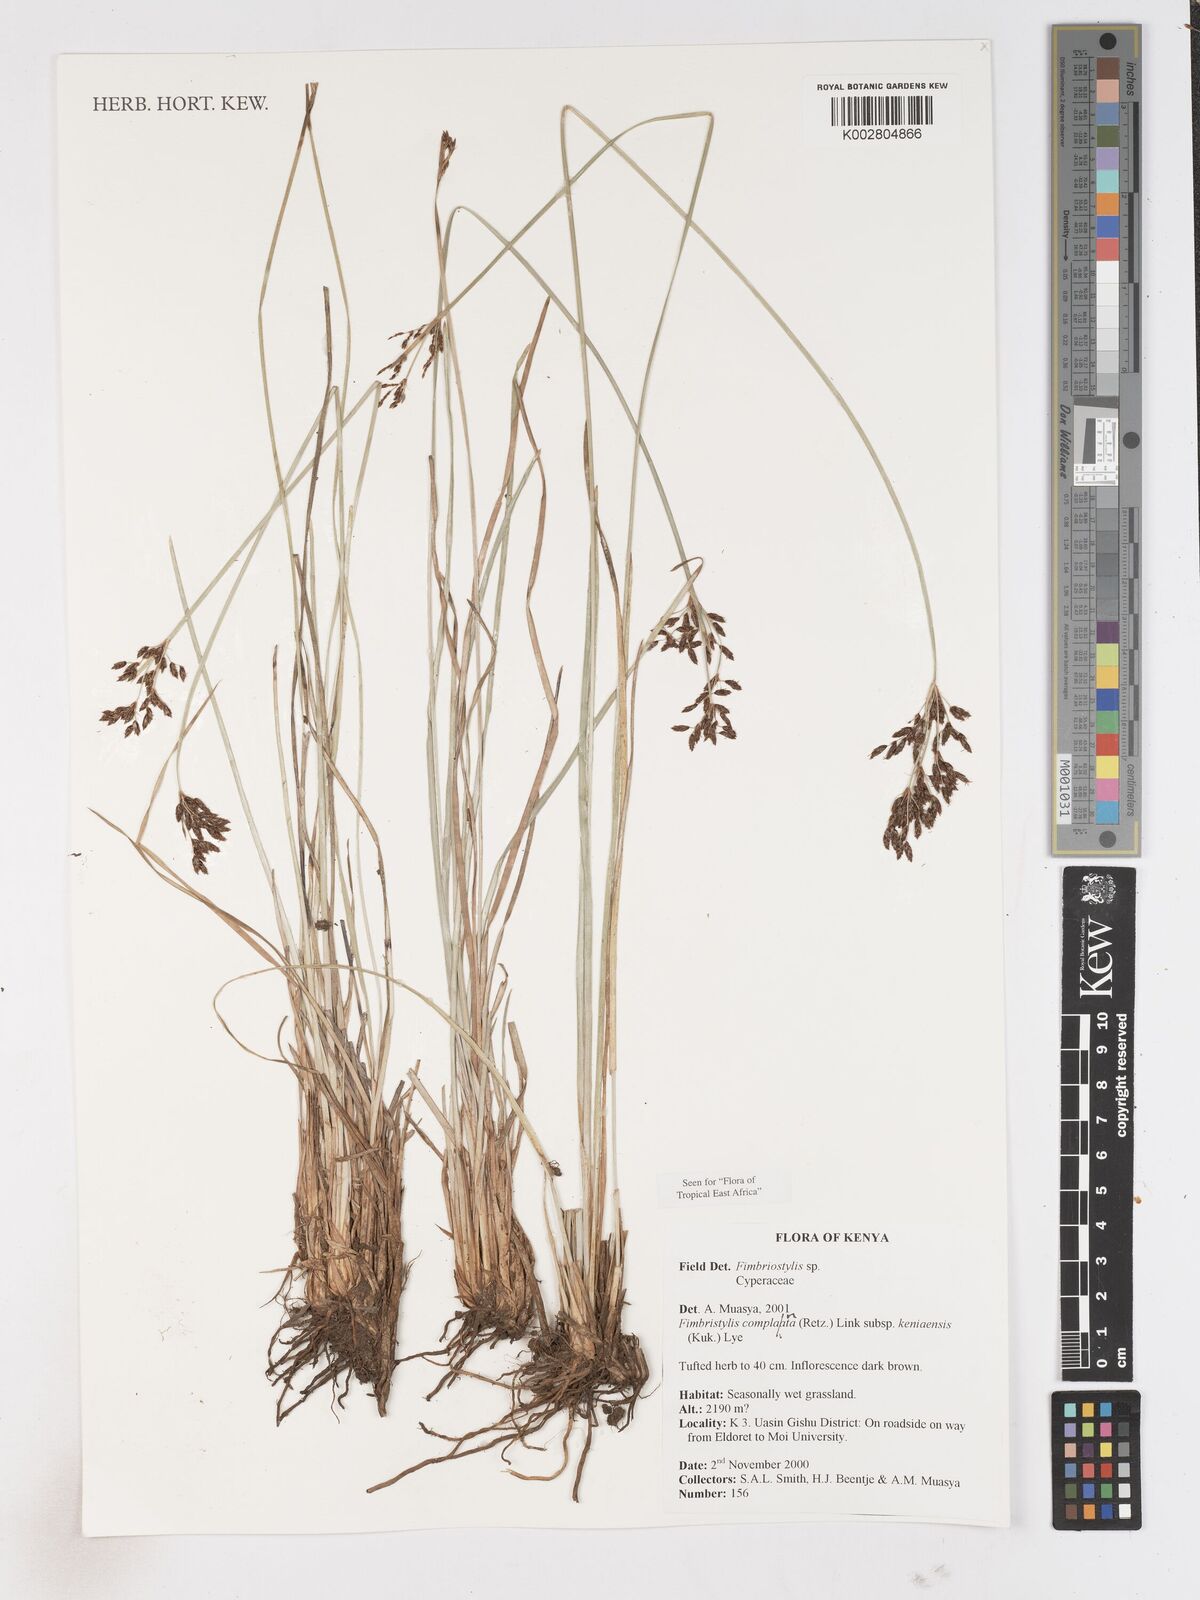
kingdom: Plantae
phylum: Tracheophyta
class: Liliopsida
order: Poales
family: Cyperaceae
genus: Fimbristylis
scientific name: Fimbristylis complanata
